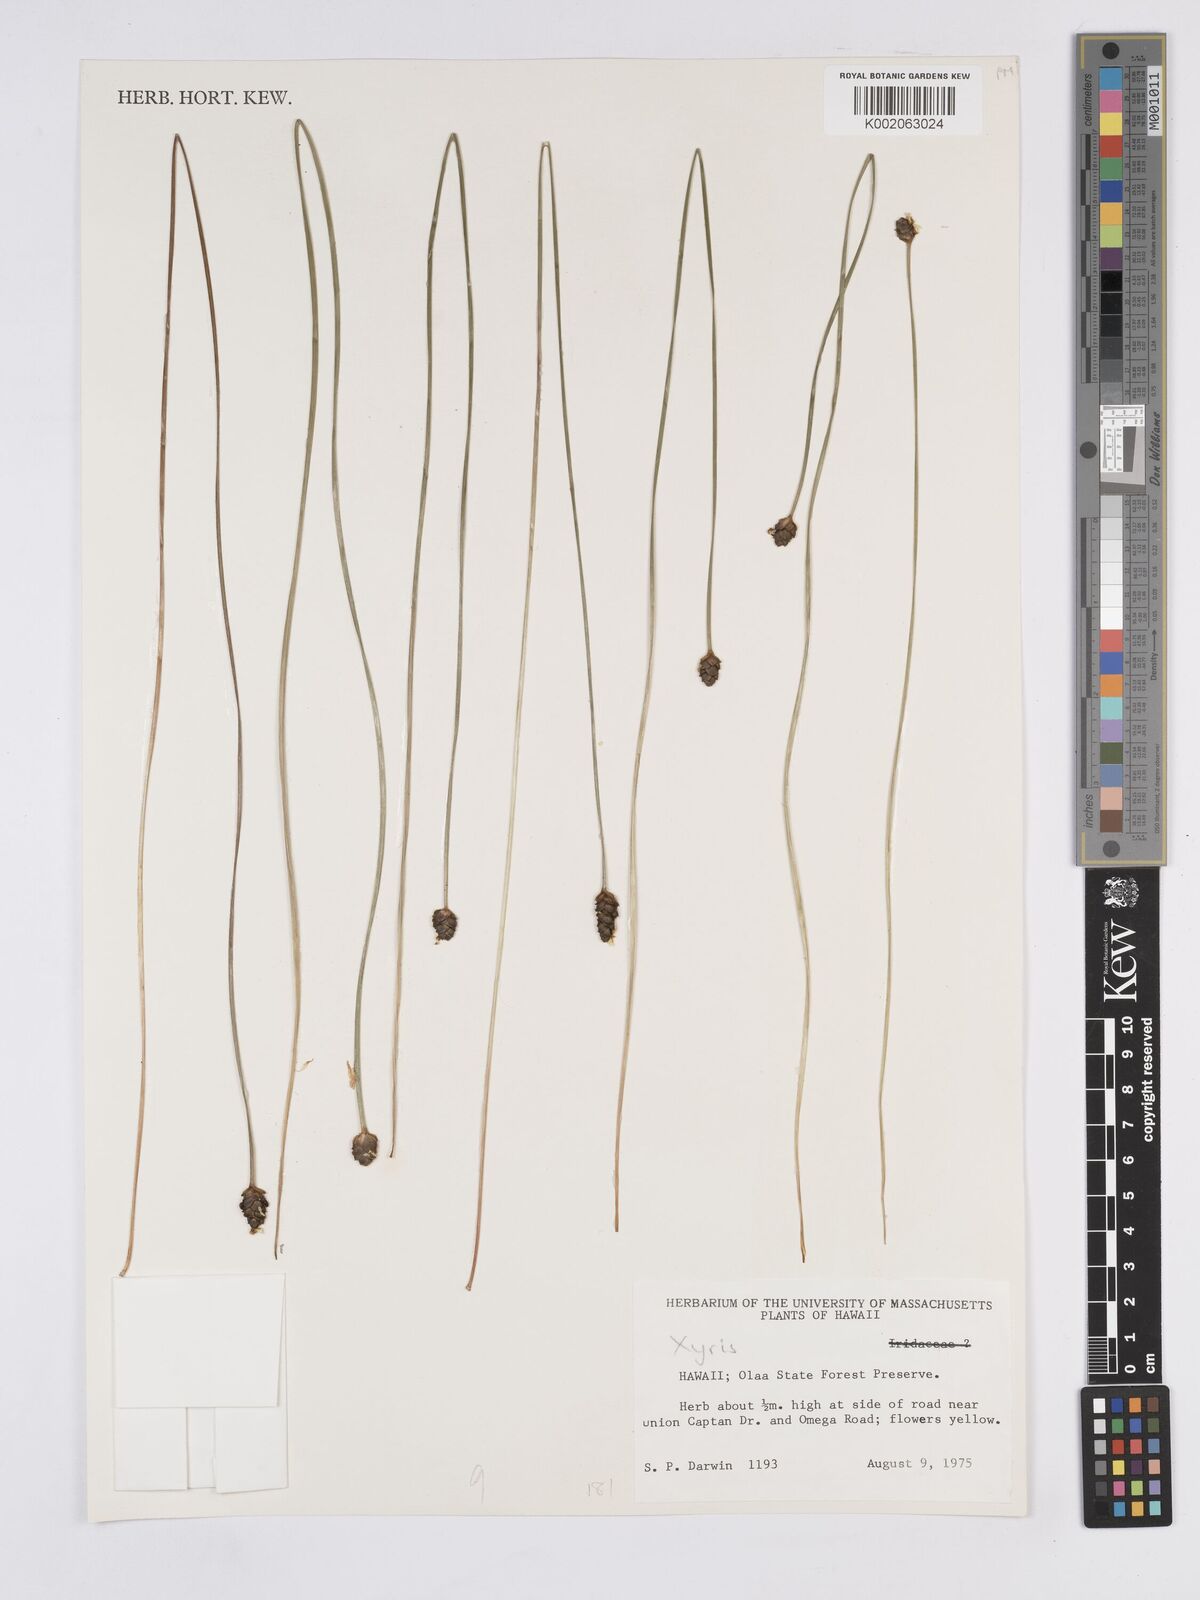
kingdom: Plantae
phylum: Tracheophyta
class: Liliopsida
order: Poales
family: Xyridaceae
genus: Xyris
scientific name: Xyris
